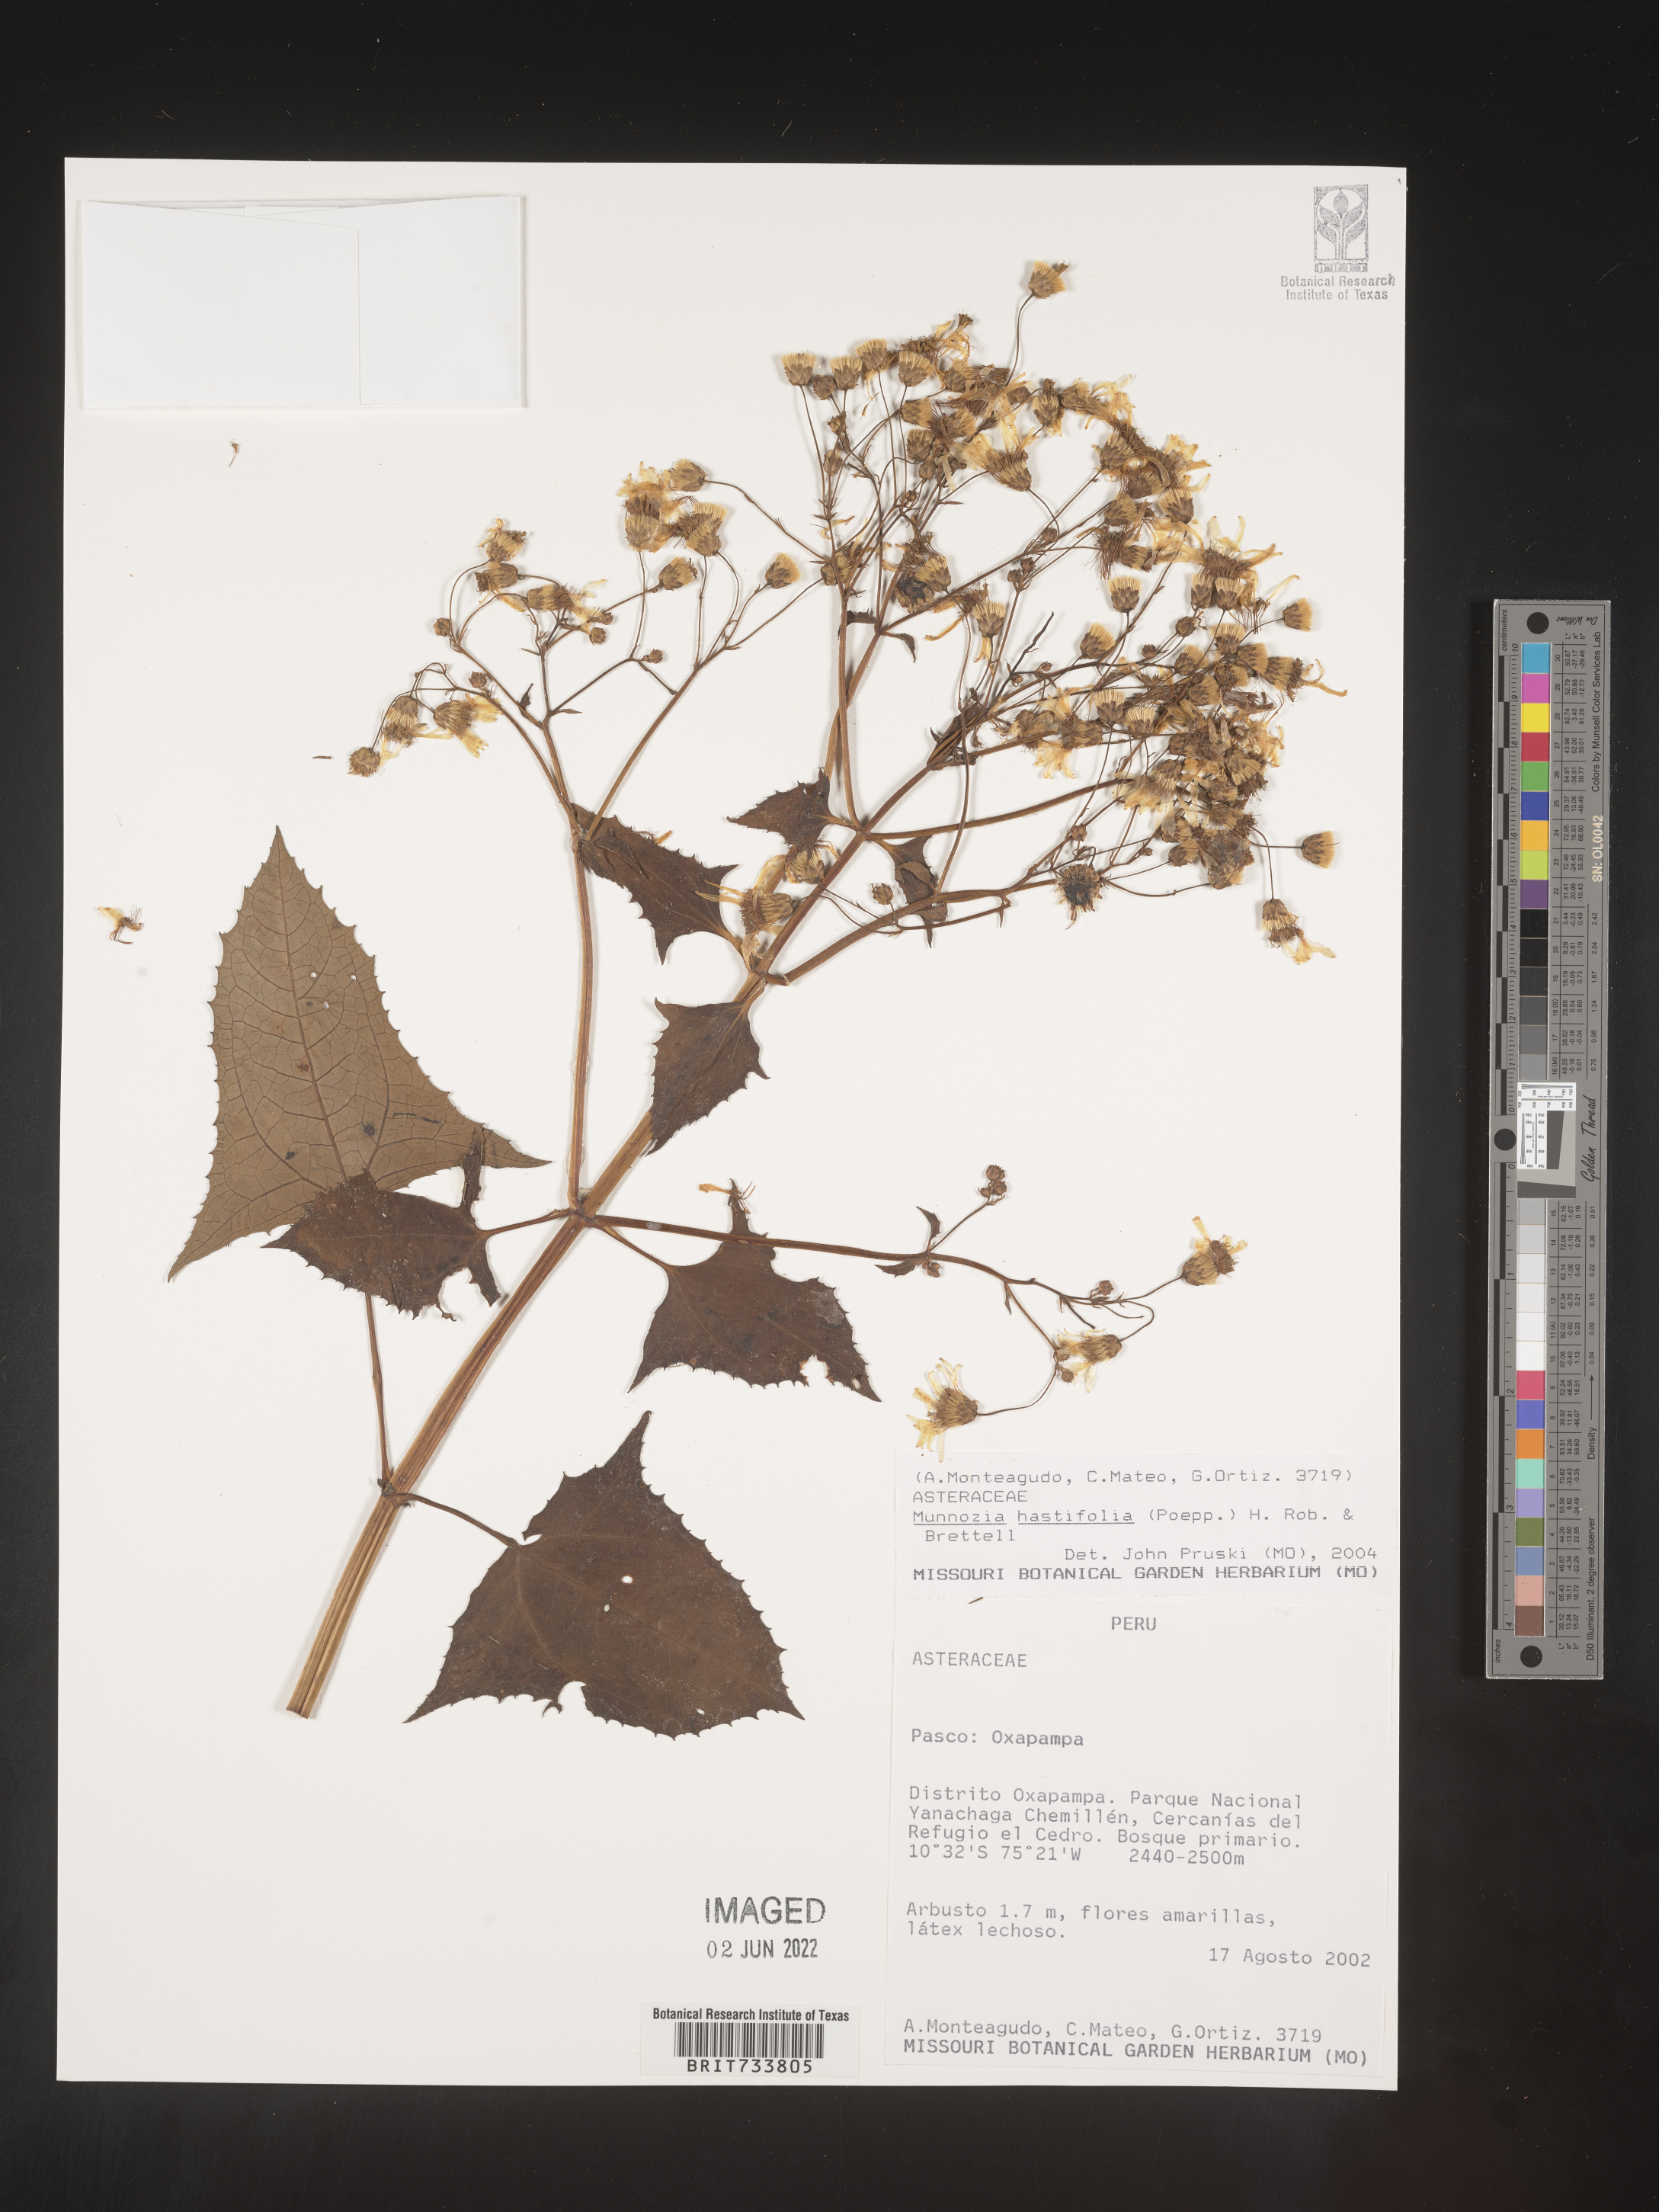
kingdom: Plantae
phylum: Tracheophyta
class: Magnoliopsida
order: Asterales
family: Asteraceae
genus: Munnozia
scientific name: Munnozia
